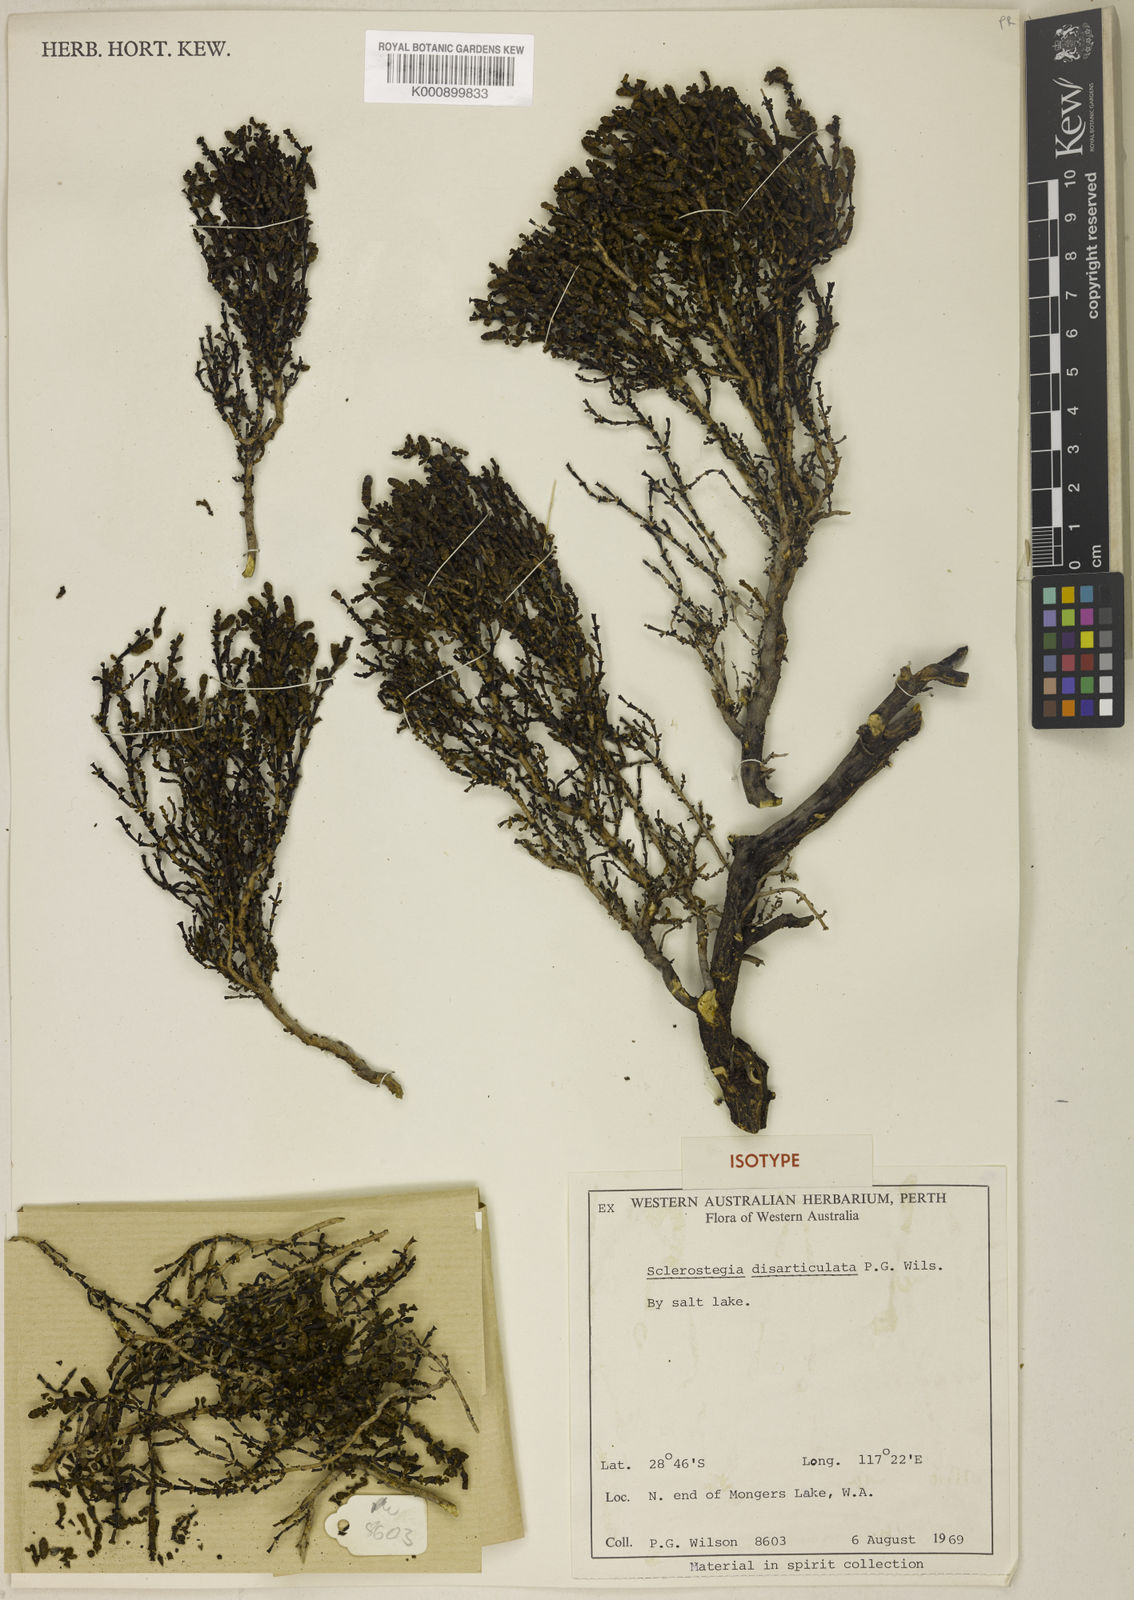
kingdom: Plantae
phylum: Tracheophyta
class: Magnoliopsida
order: Caryophyllales
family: Amaranthaceae
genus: Tecticornia
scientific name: Tecticornia disarticulata
